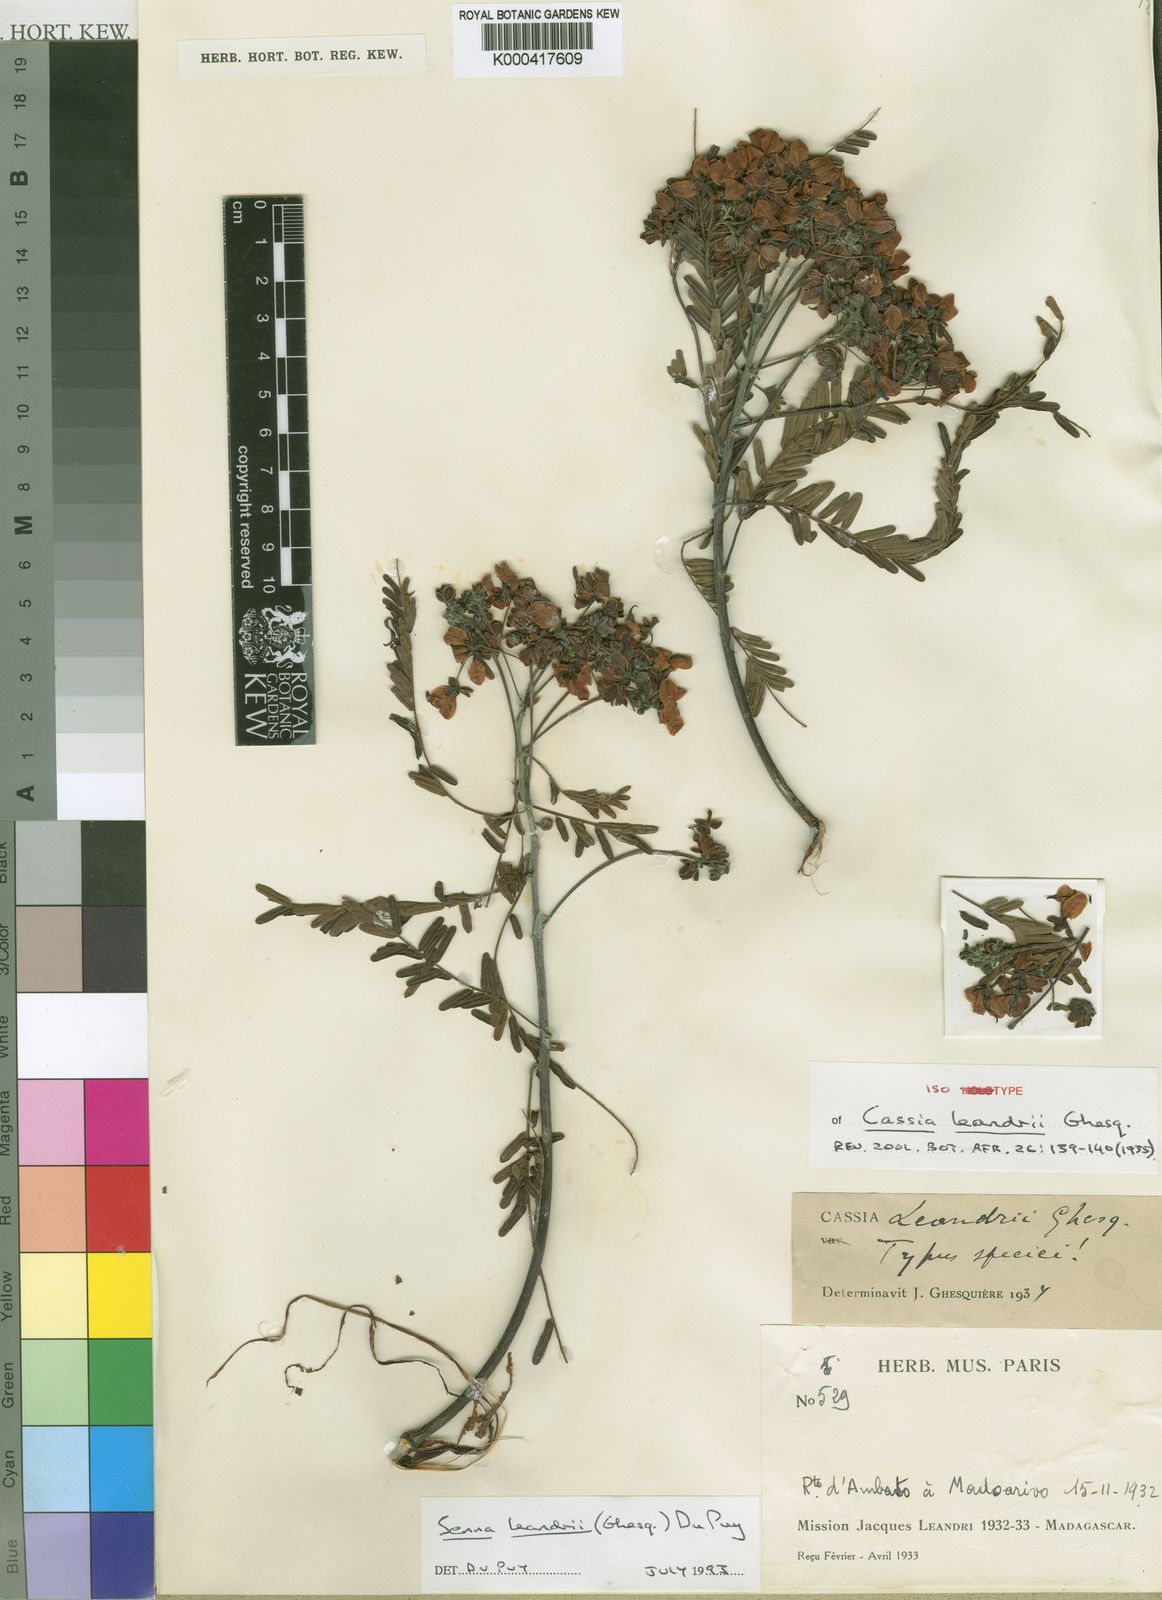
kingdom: Plantae
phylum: Tracheophyta
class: Magnoliopsida
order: Fabales
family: Fabaceae
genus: Senna
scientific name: Senna leandrii
